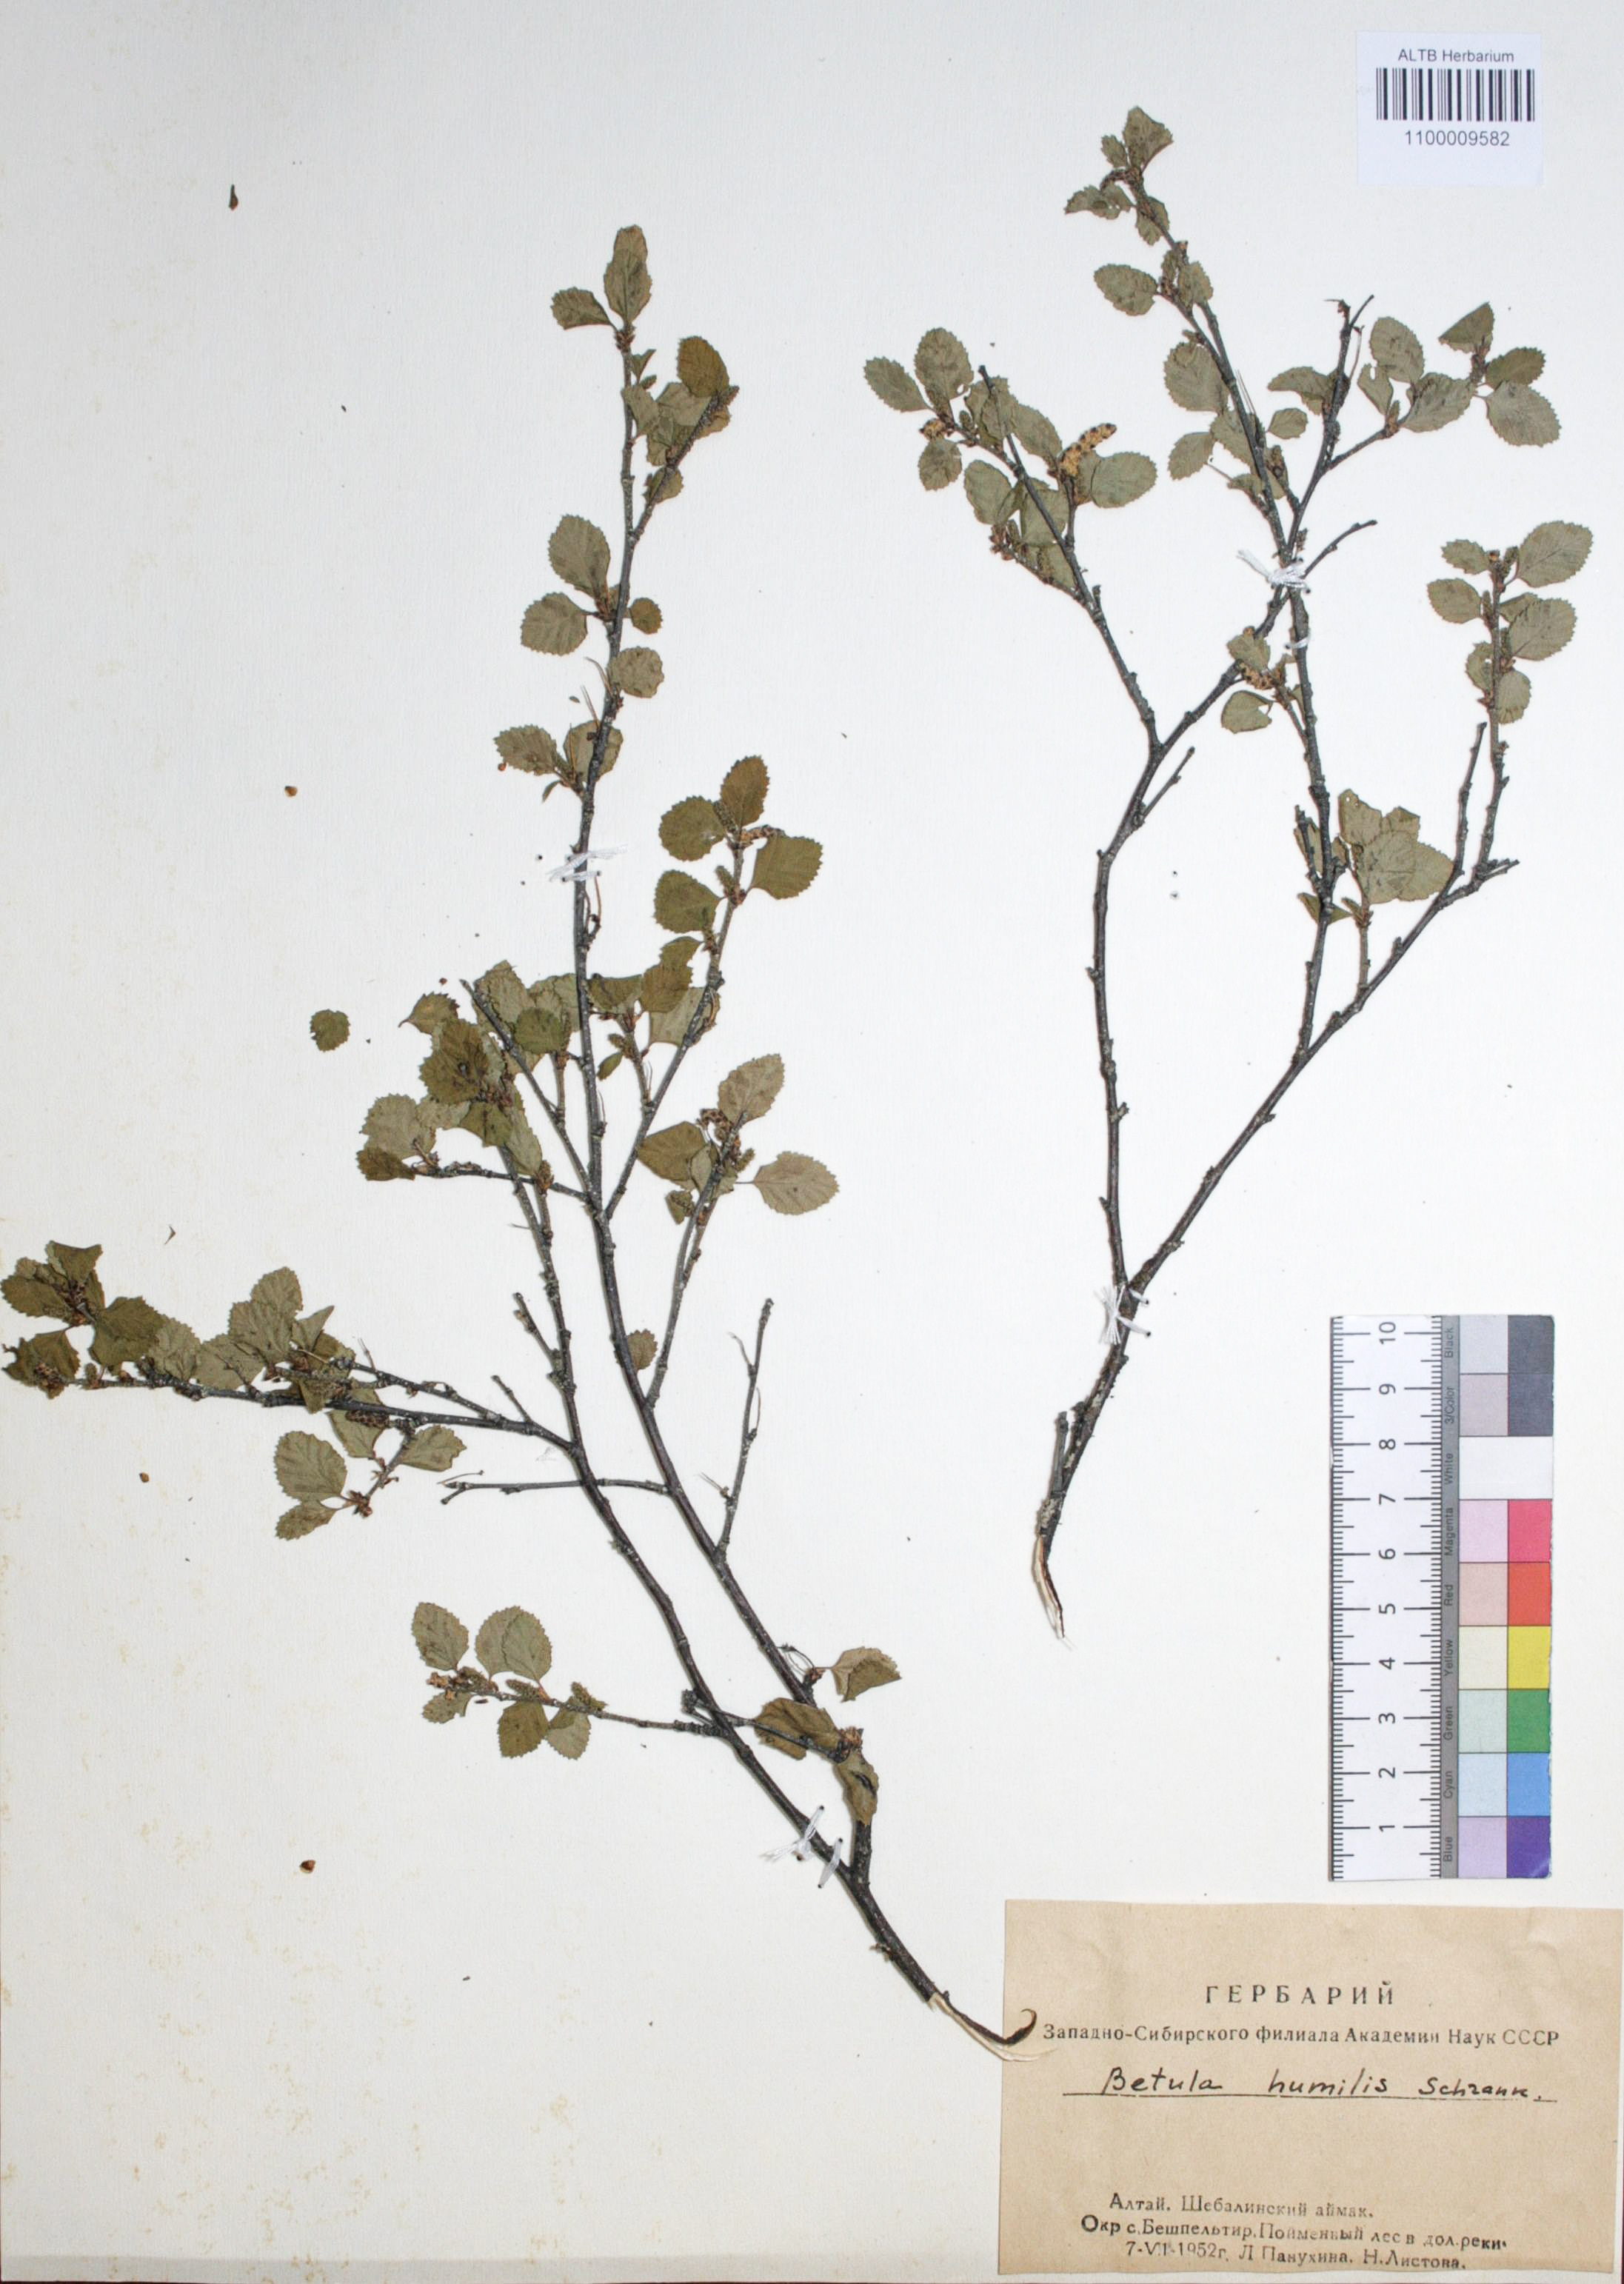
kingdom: Plantae
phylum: Tracheophyta
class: Magnoliopsida
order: Fagales
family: Betulaceae
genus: Betula
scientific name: Betula humilis
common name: Shrubby birch
